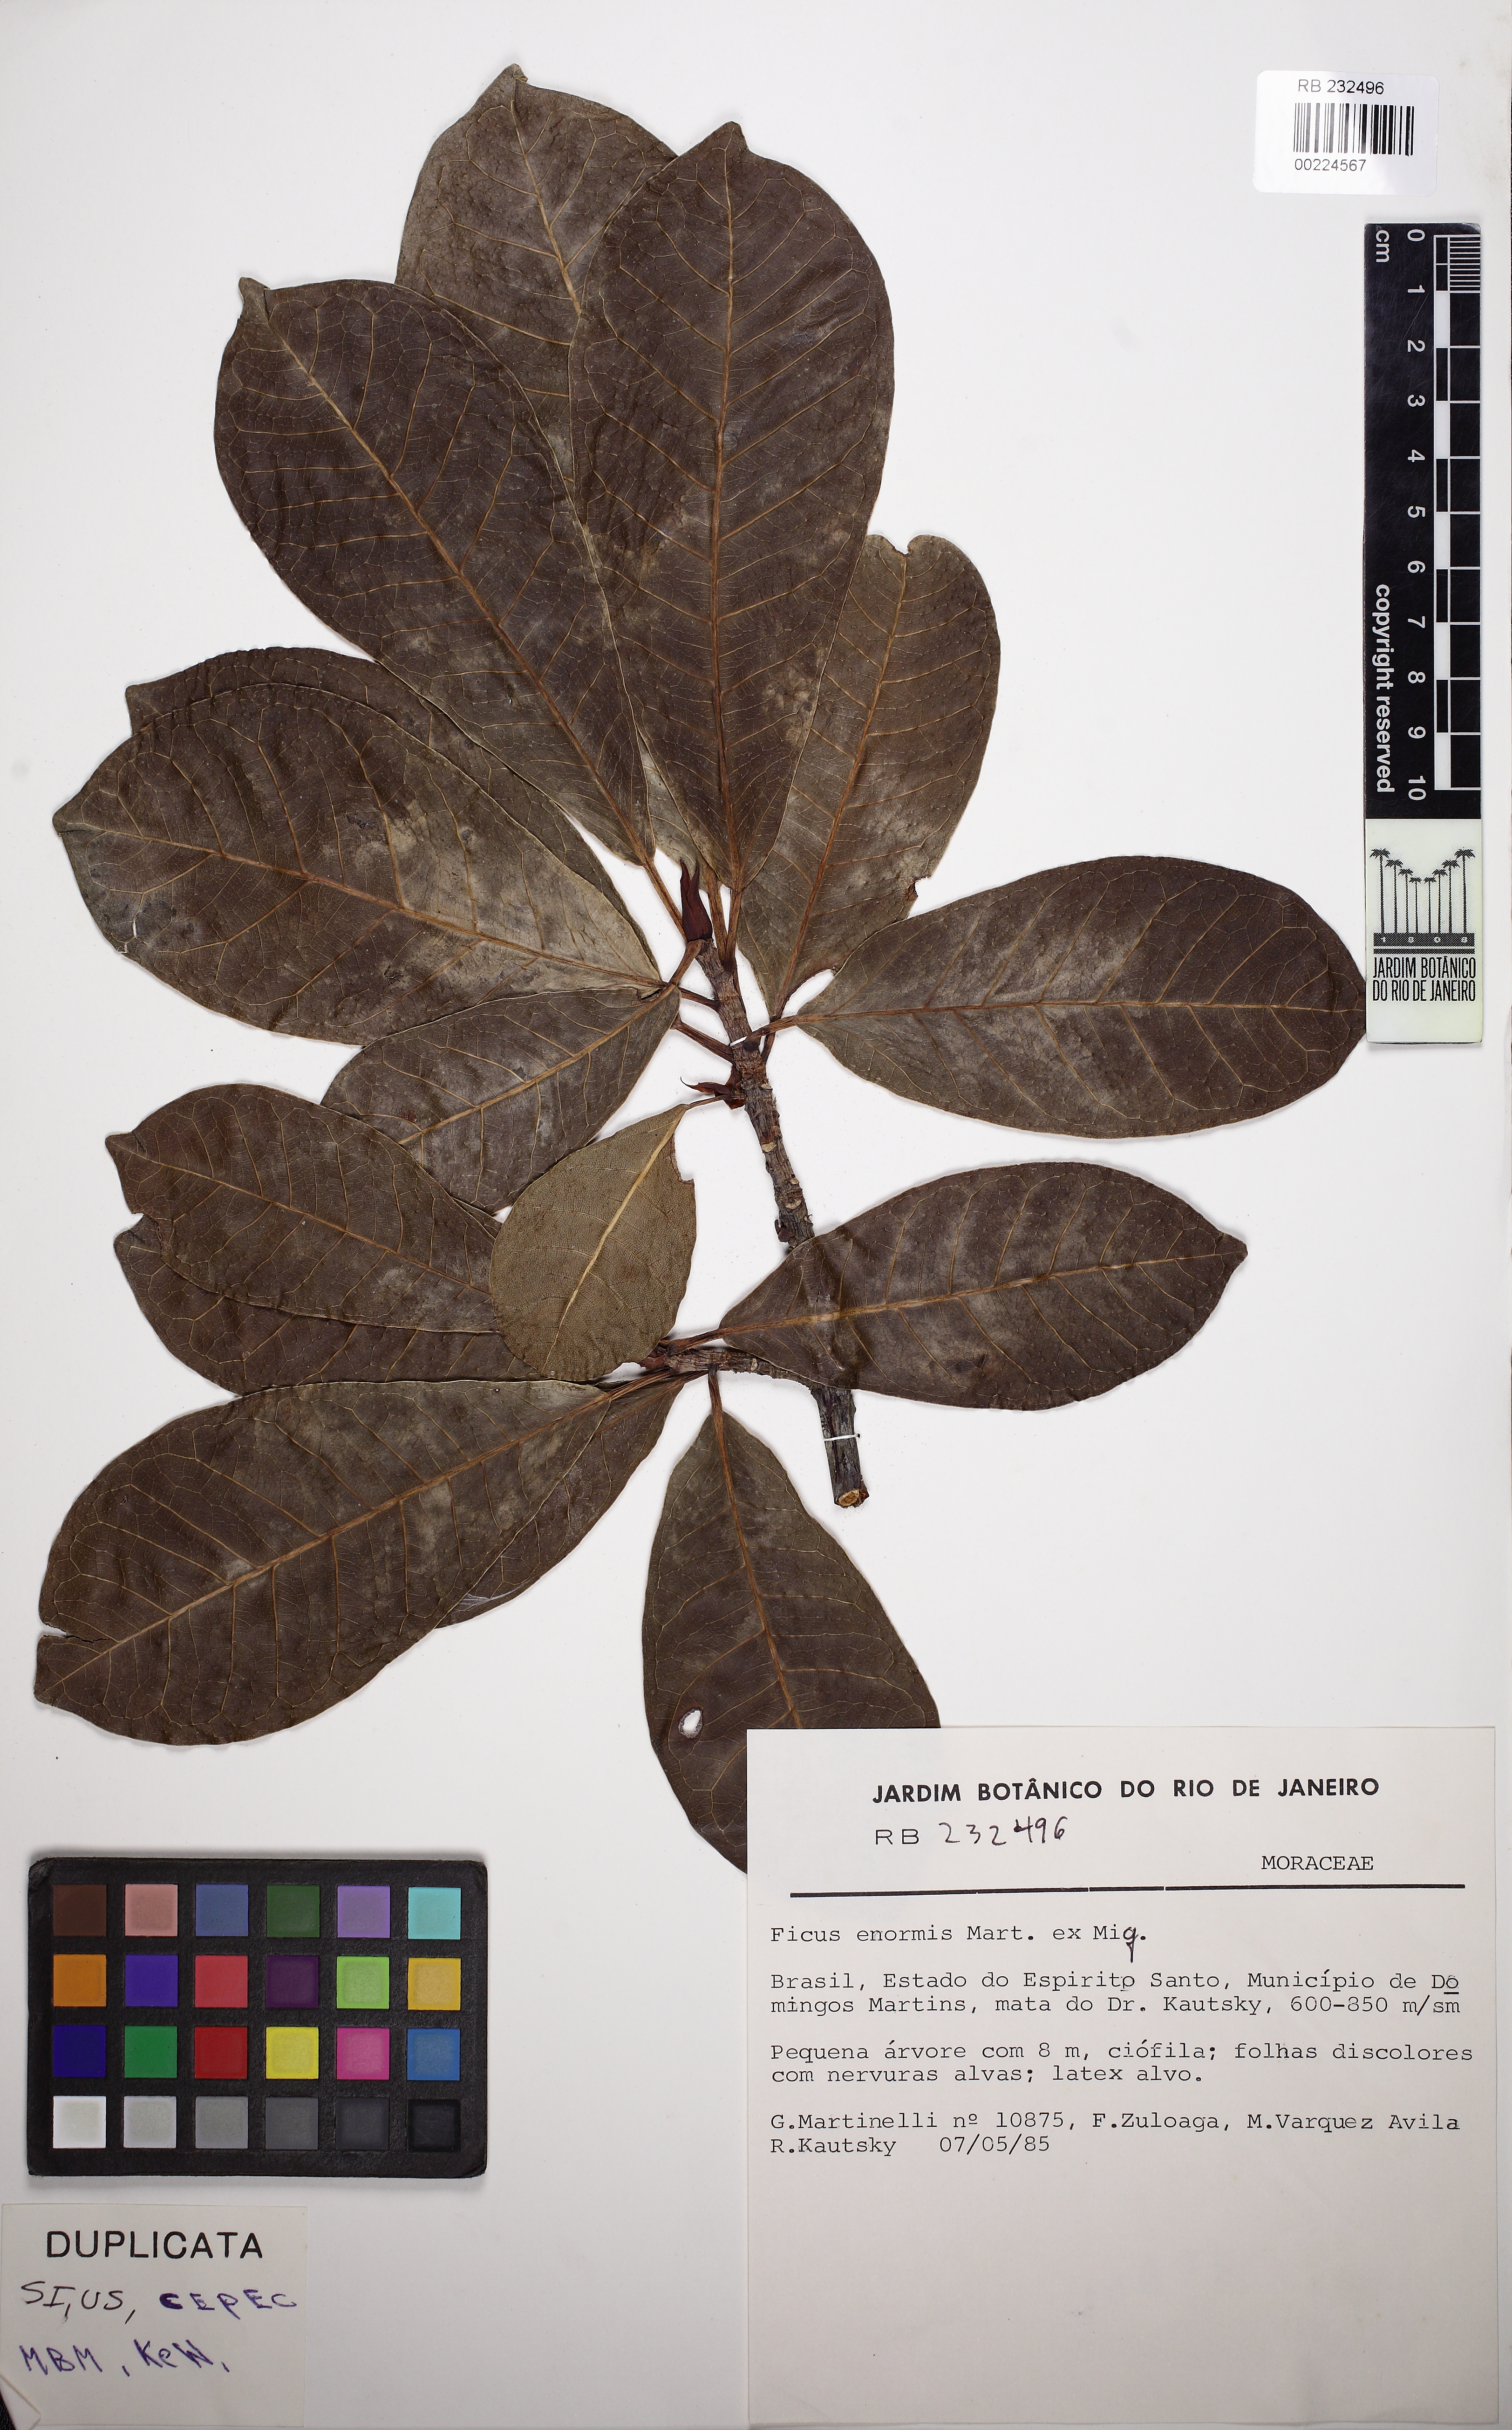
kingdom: Plantae
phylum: Tracheophyta
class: Magnoliopsida
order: Rosales
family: Moraceae
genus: Ficus
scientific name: Ficus mexiae
